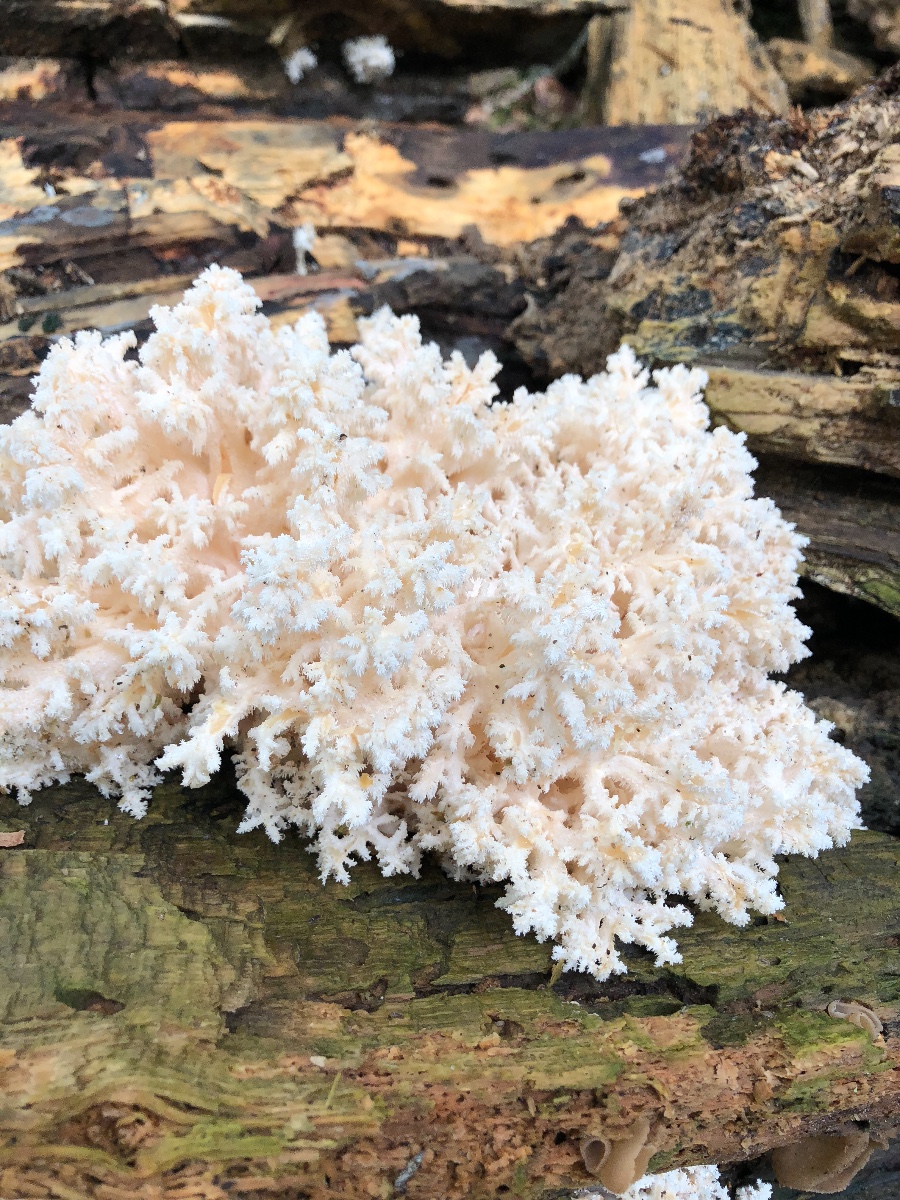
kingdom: Fungi
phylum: Basidiomycota
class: Agaricomycetes
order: Russulales
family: Hericiaceae
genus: Hericium
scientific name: Hericium coralloides
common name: koralpigsvamp
